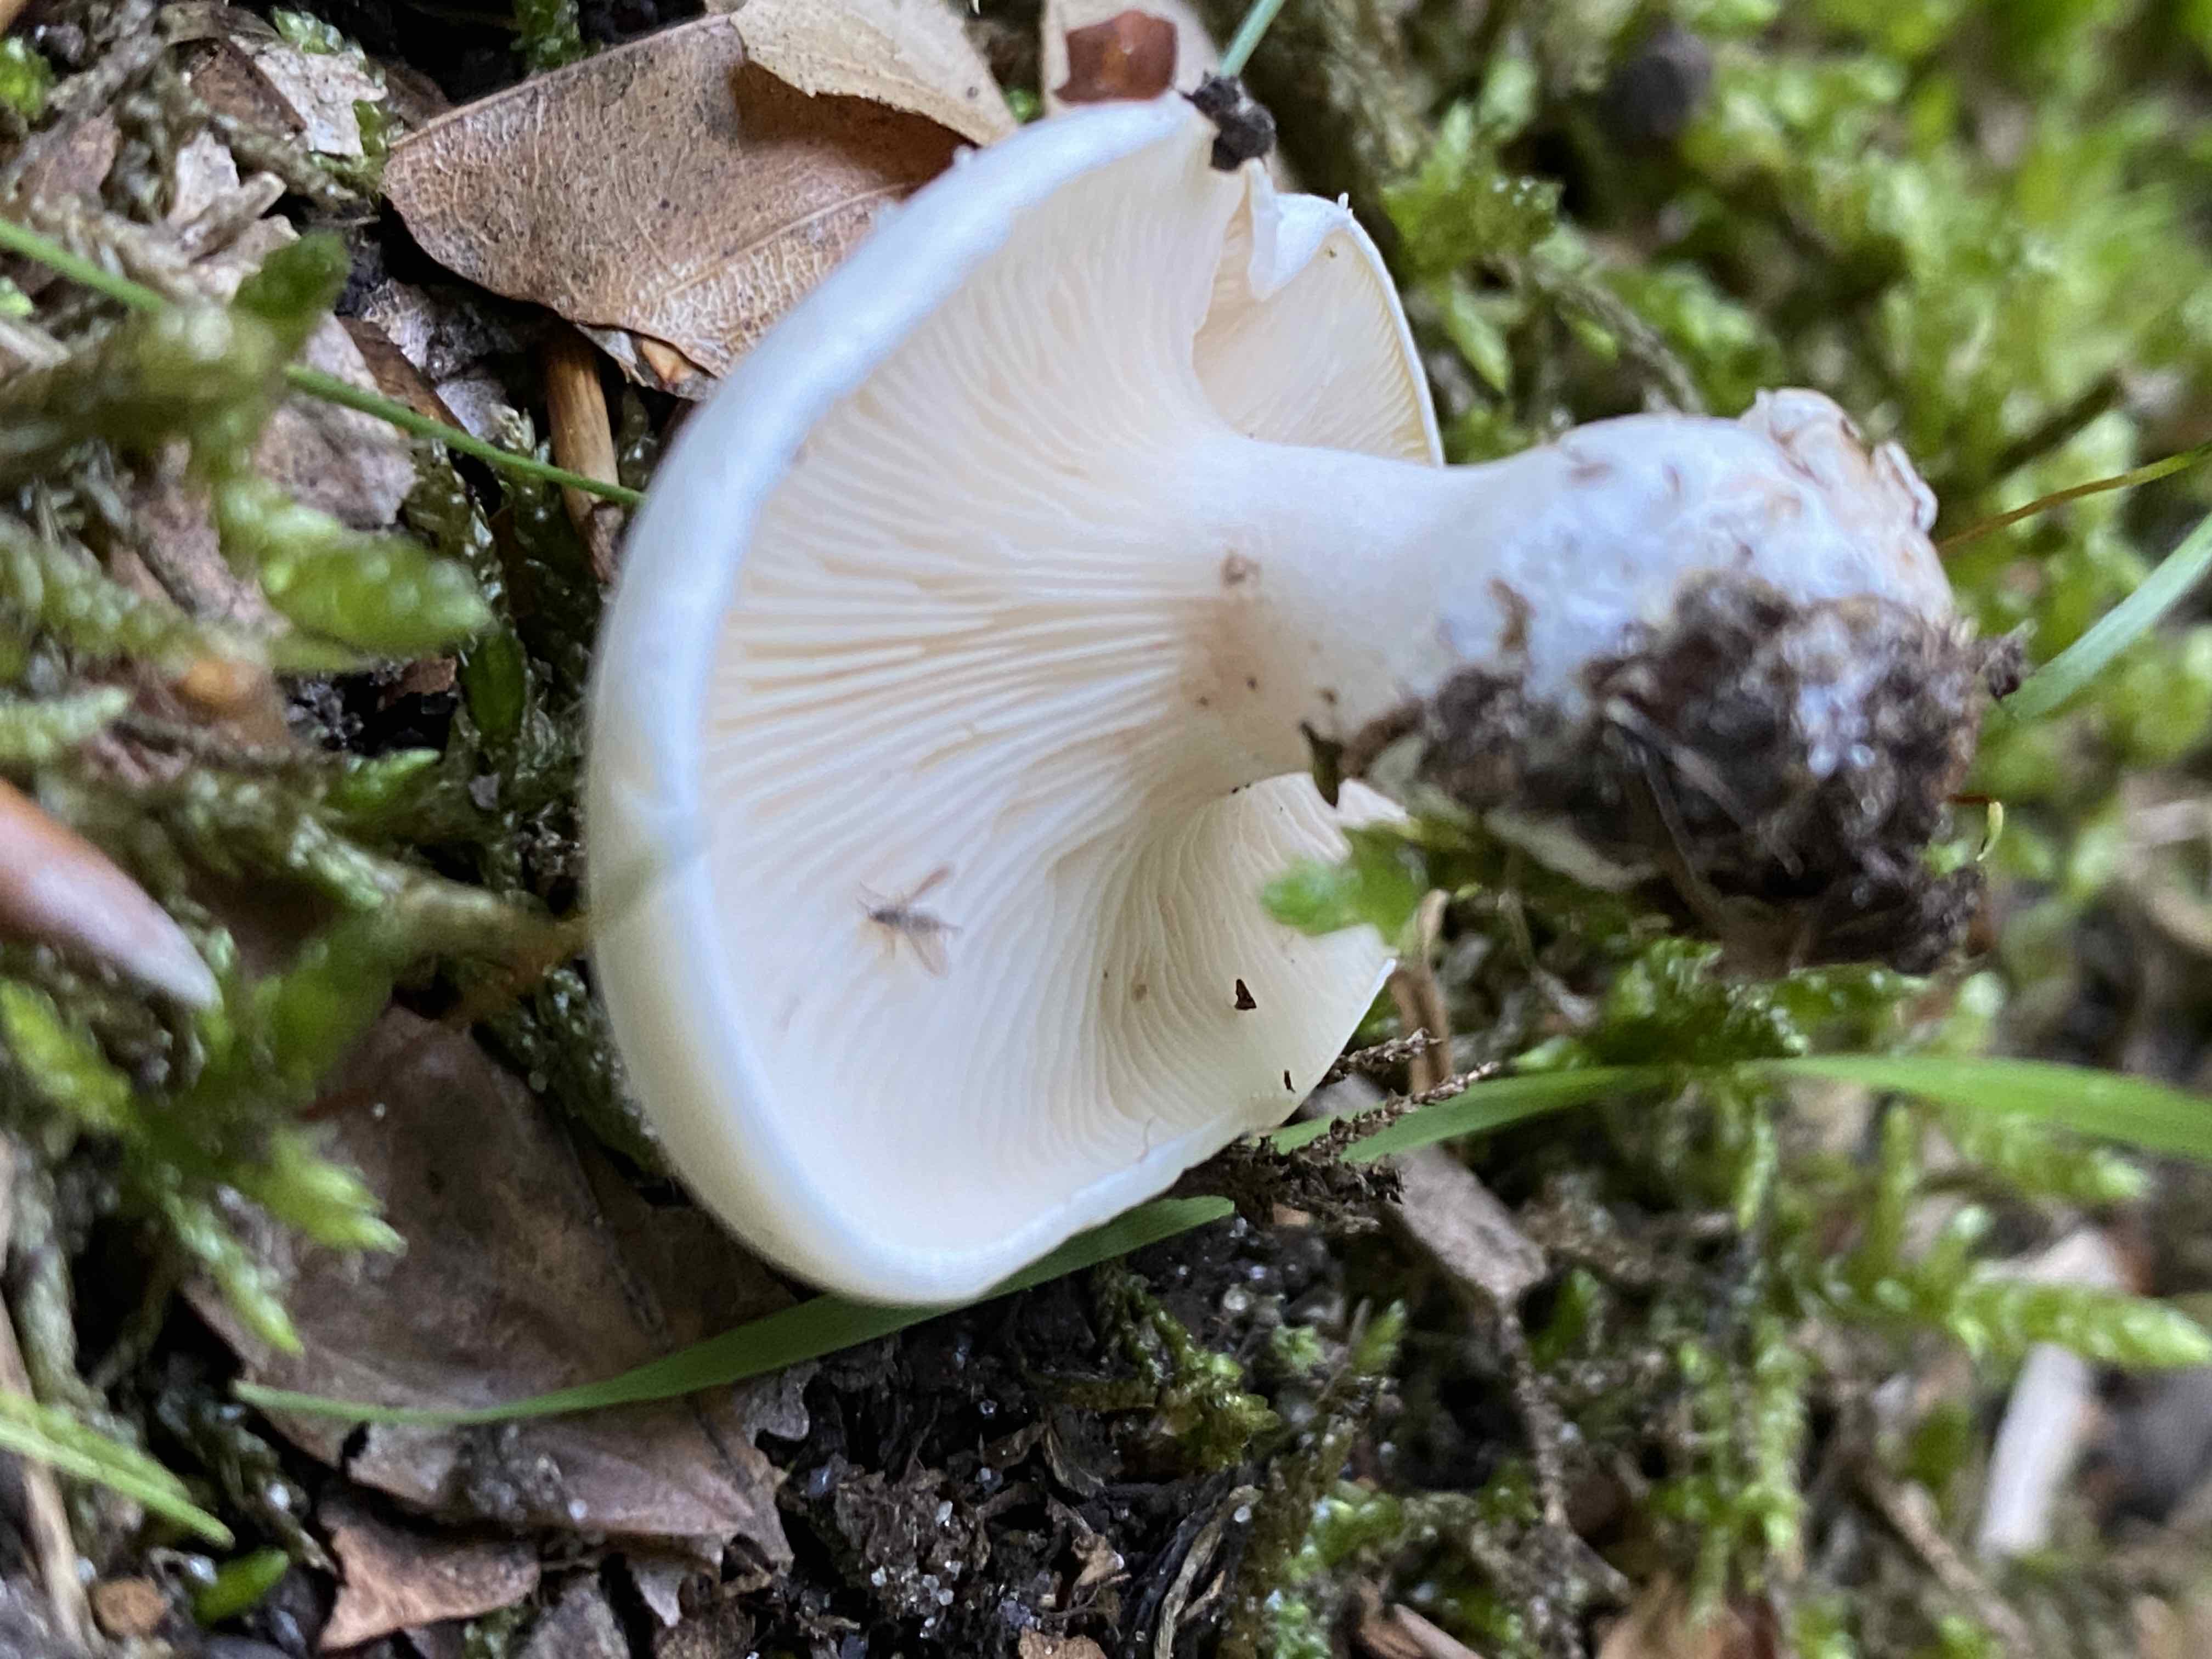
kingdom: Fungi
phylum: Basidiomycota
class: Agaricomycetes
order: Agaricales
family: Entolomataceae
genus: Clitopilus
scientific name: Clitopilus prunulus
